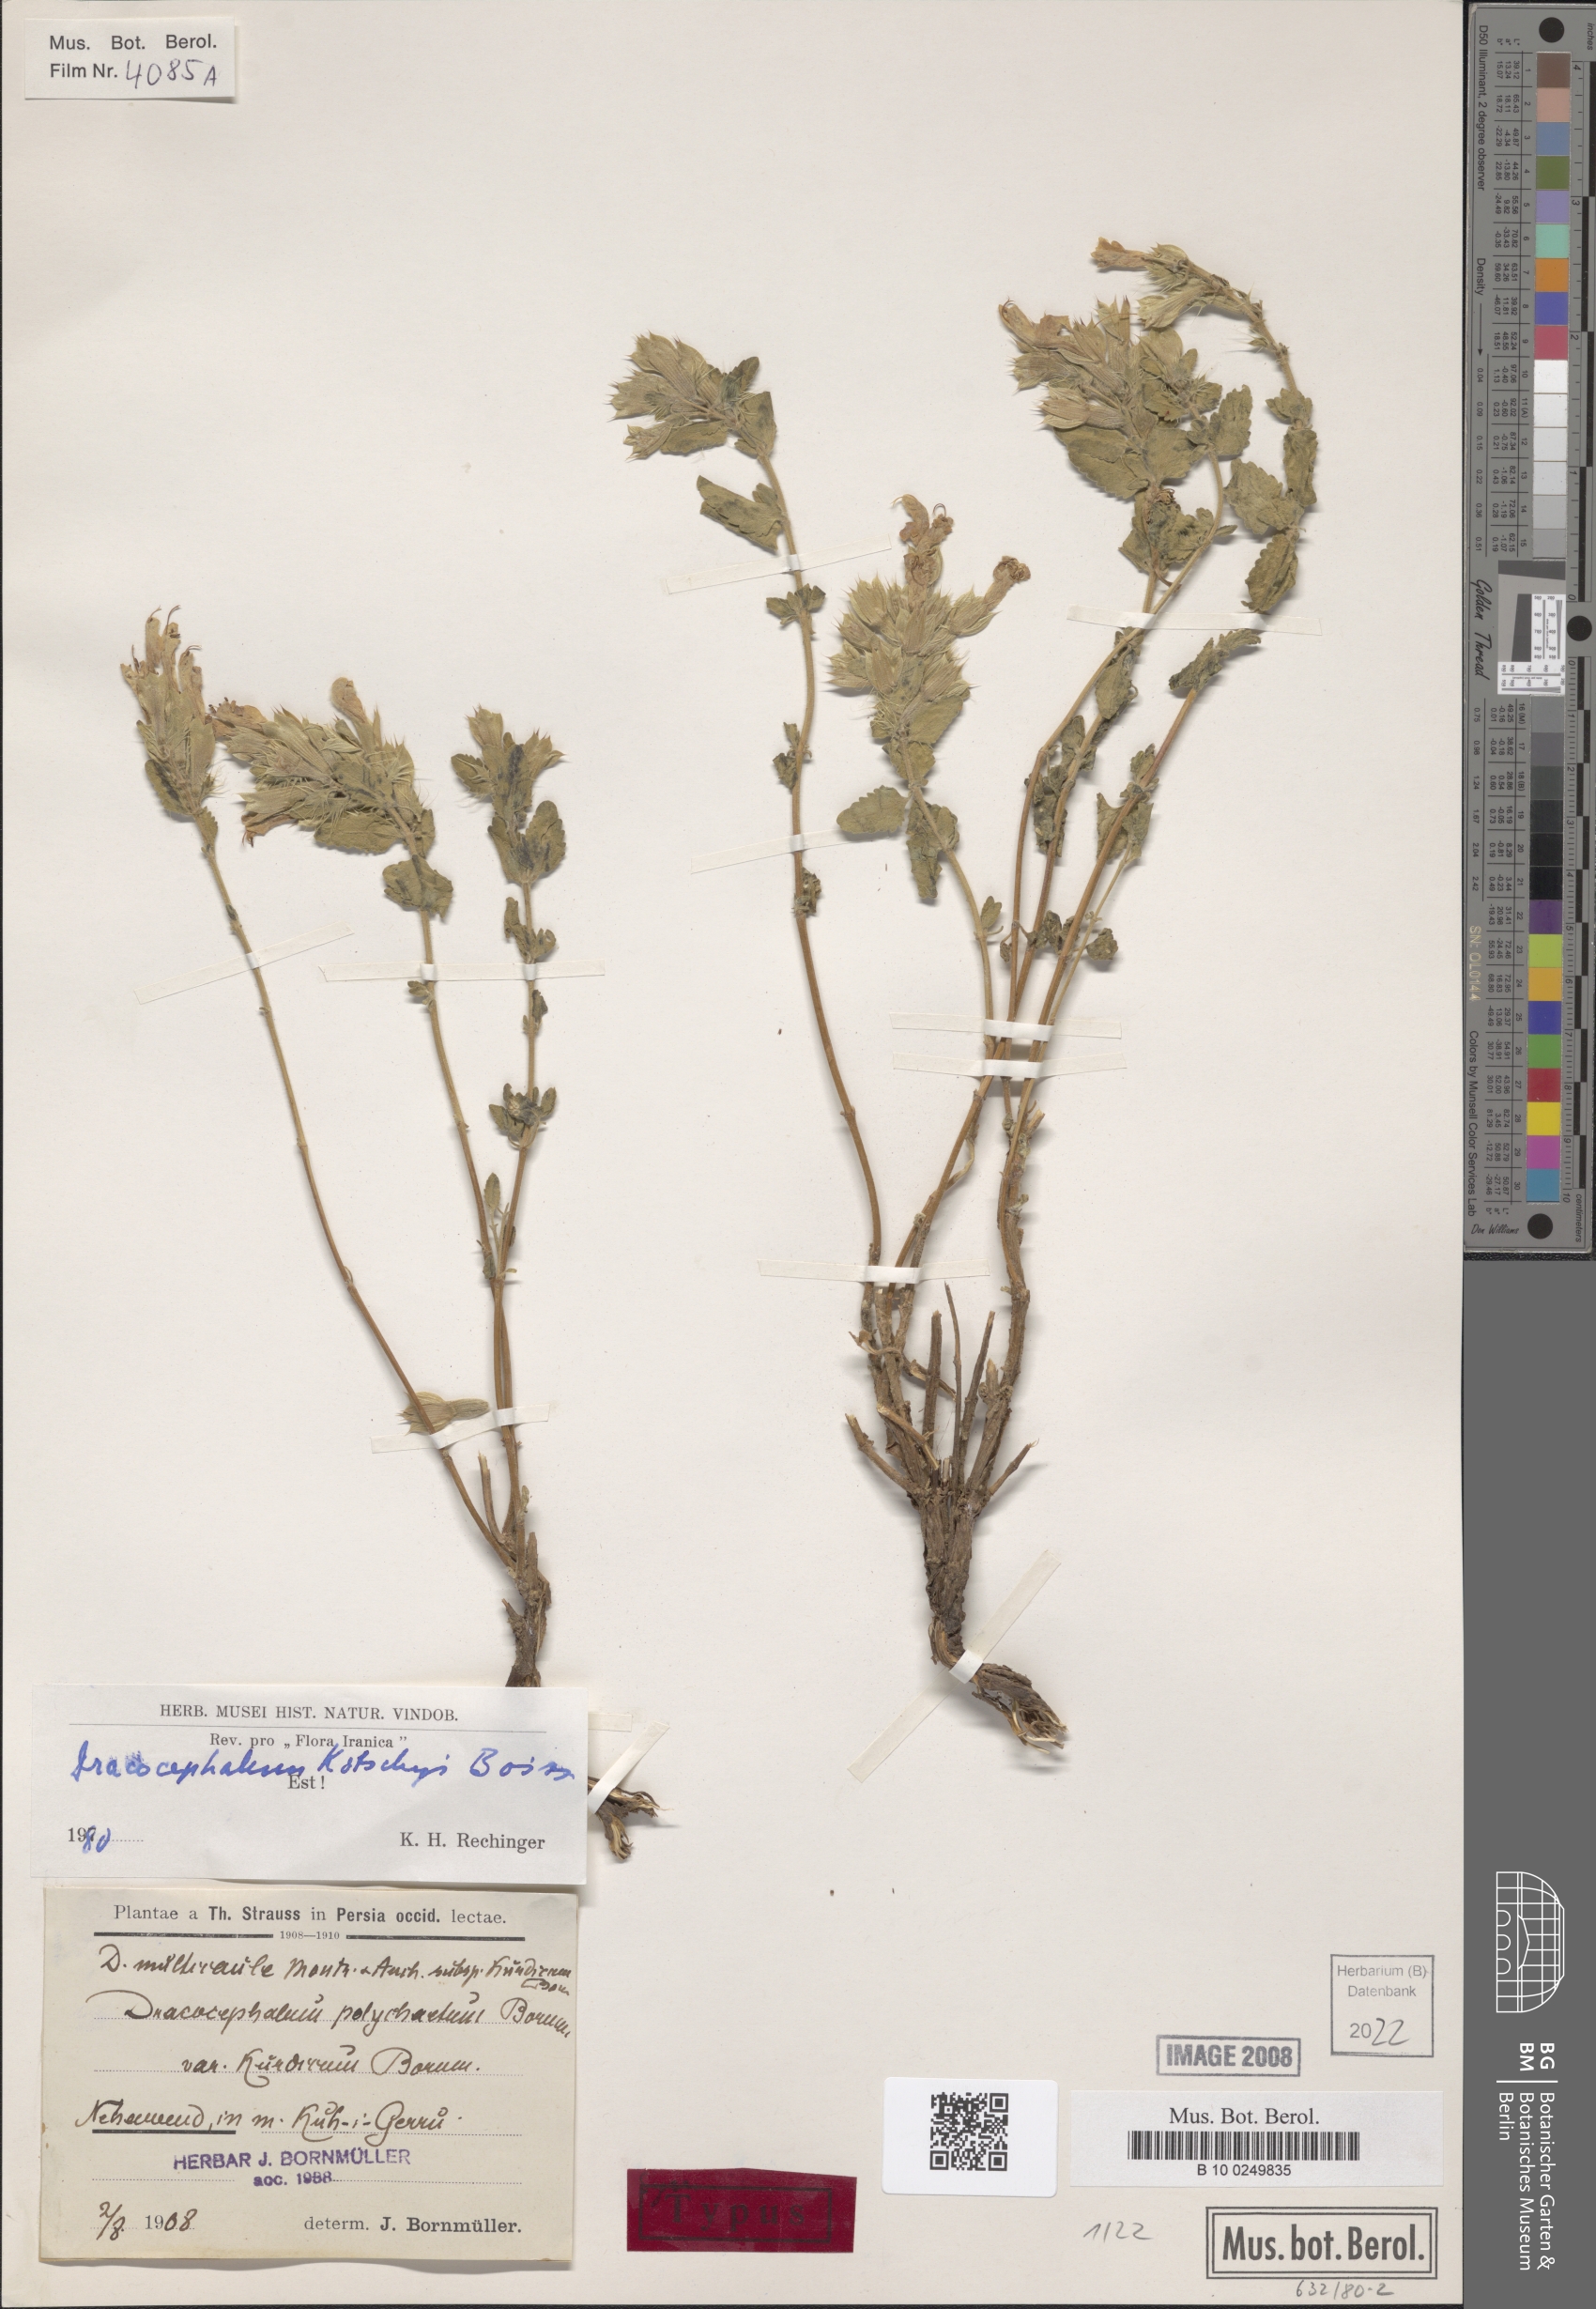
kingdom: Plantae
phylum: Tracheophyta
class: Magnoliopsida
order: Lamiales
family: Lamiaceae
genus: Dracocephalum
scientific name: Dracocephalum kotschyi
